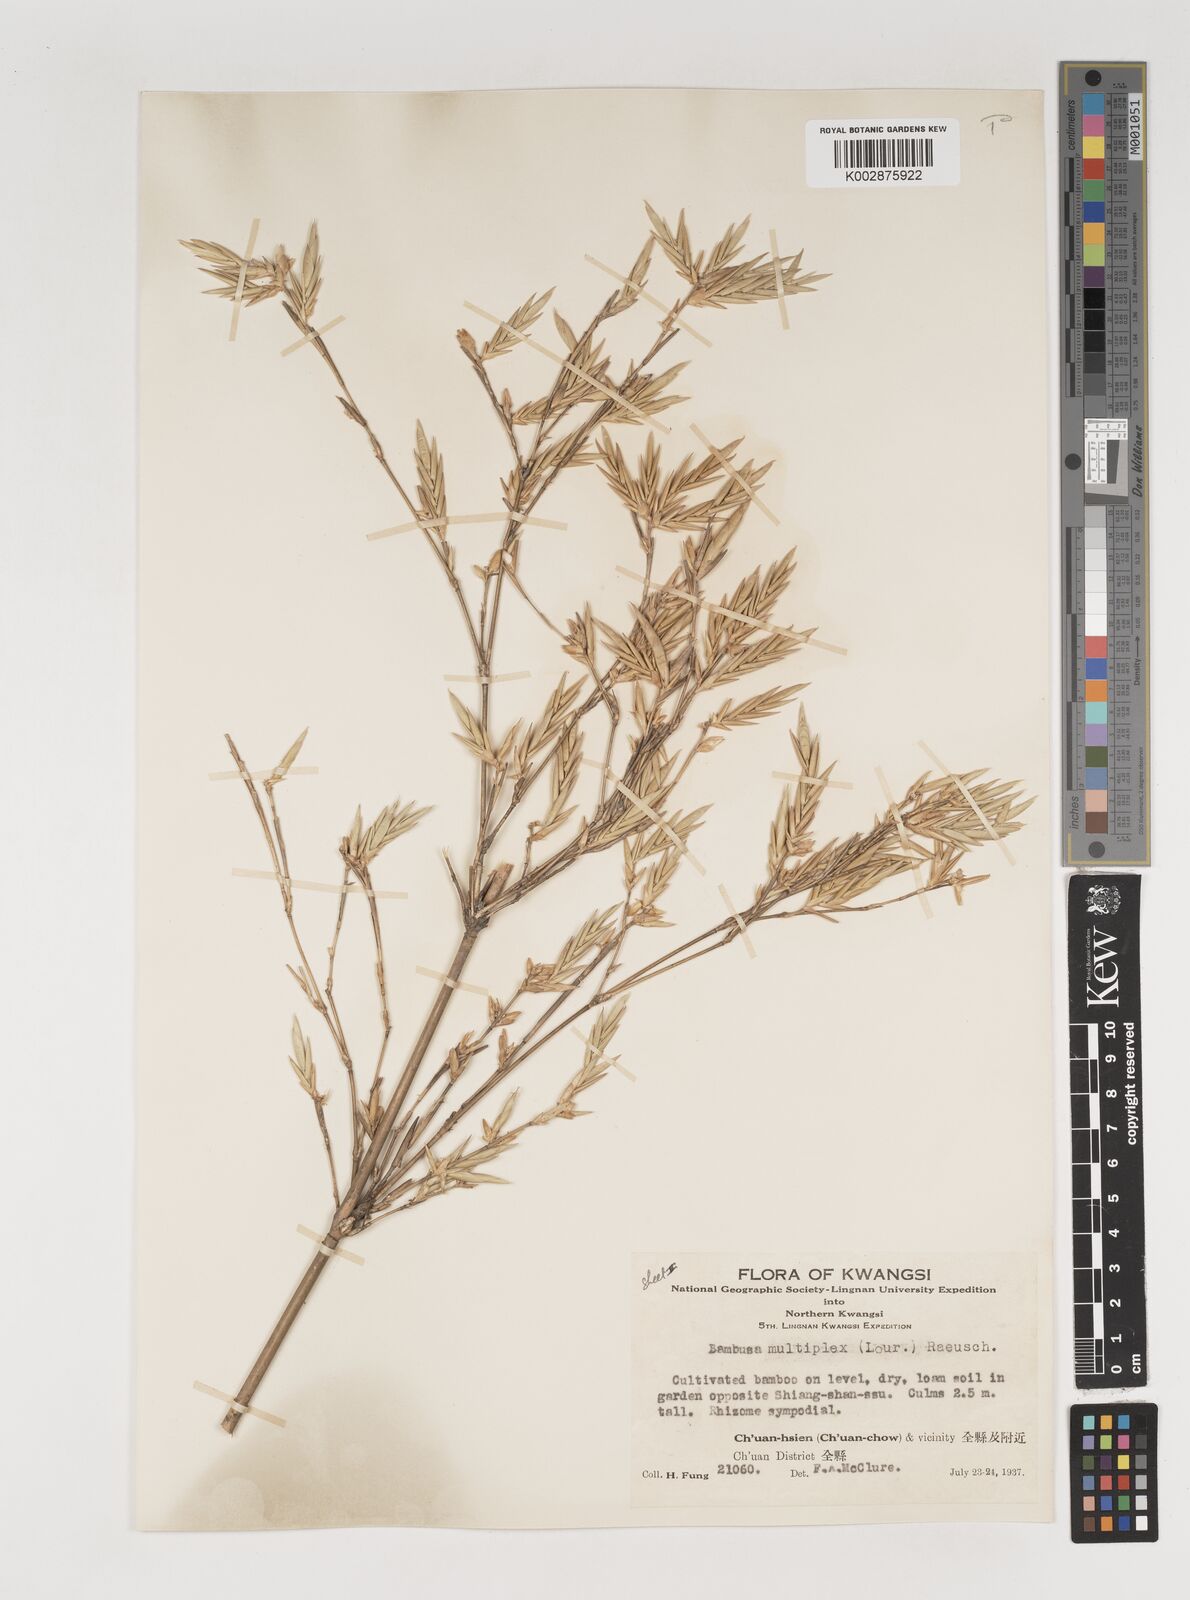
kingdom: Plantae
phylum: Tracheophyta
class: Liliopsida
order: Poales
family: Poaceae
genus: Bambusa
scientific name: Bambusa multiplex
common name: Hedge bamboo
